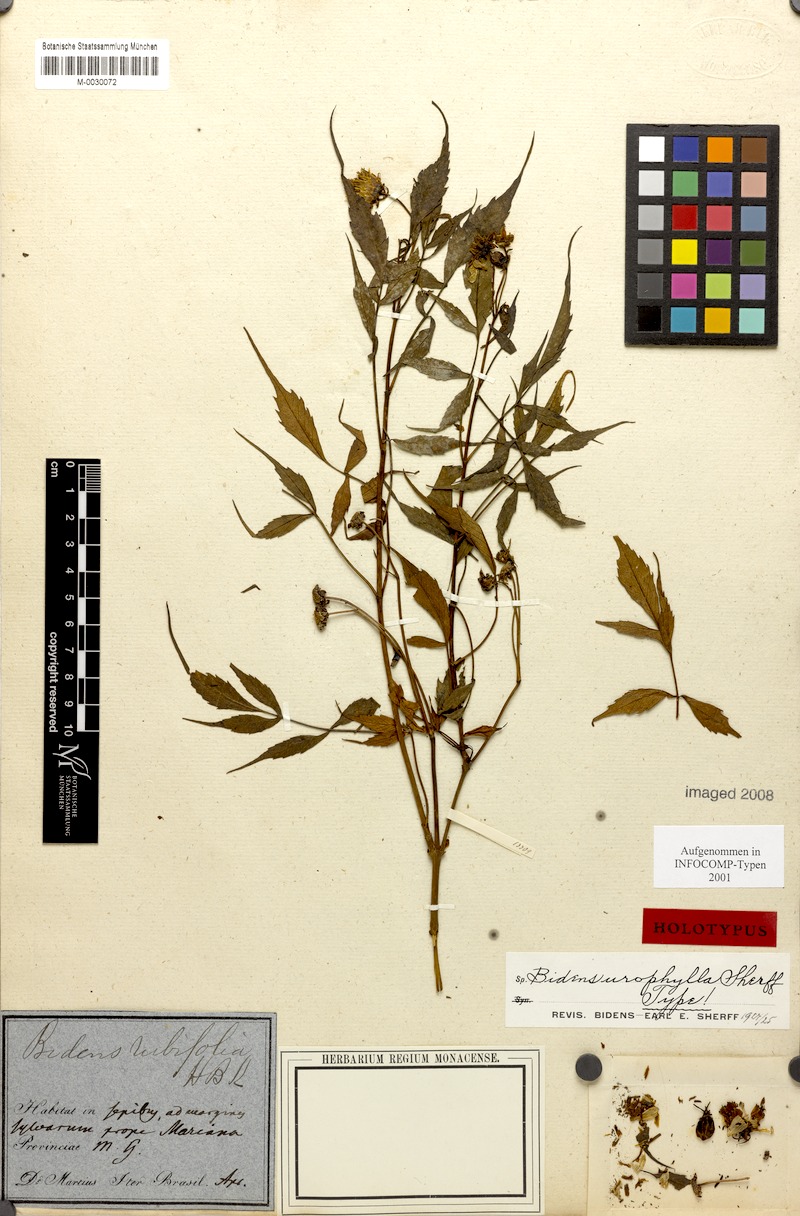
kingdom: Plantae
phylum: Tracheophyta
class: Magnoliopsida
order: Asterales
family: Asteraceae
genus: Bidens
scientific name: Bidens urophylla
